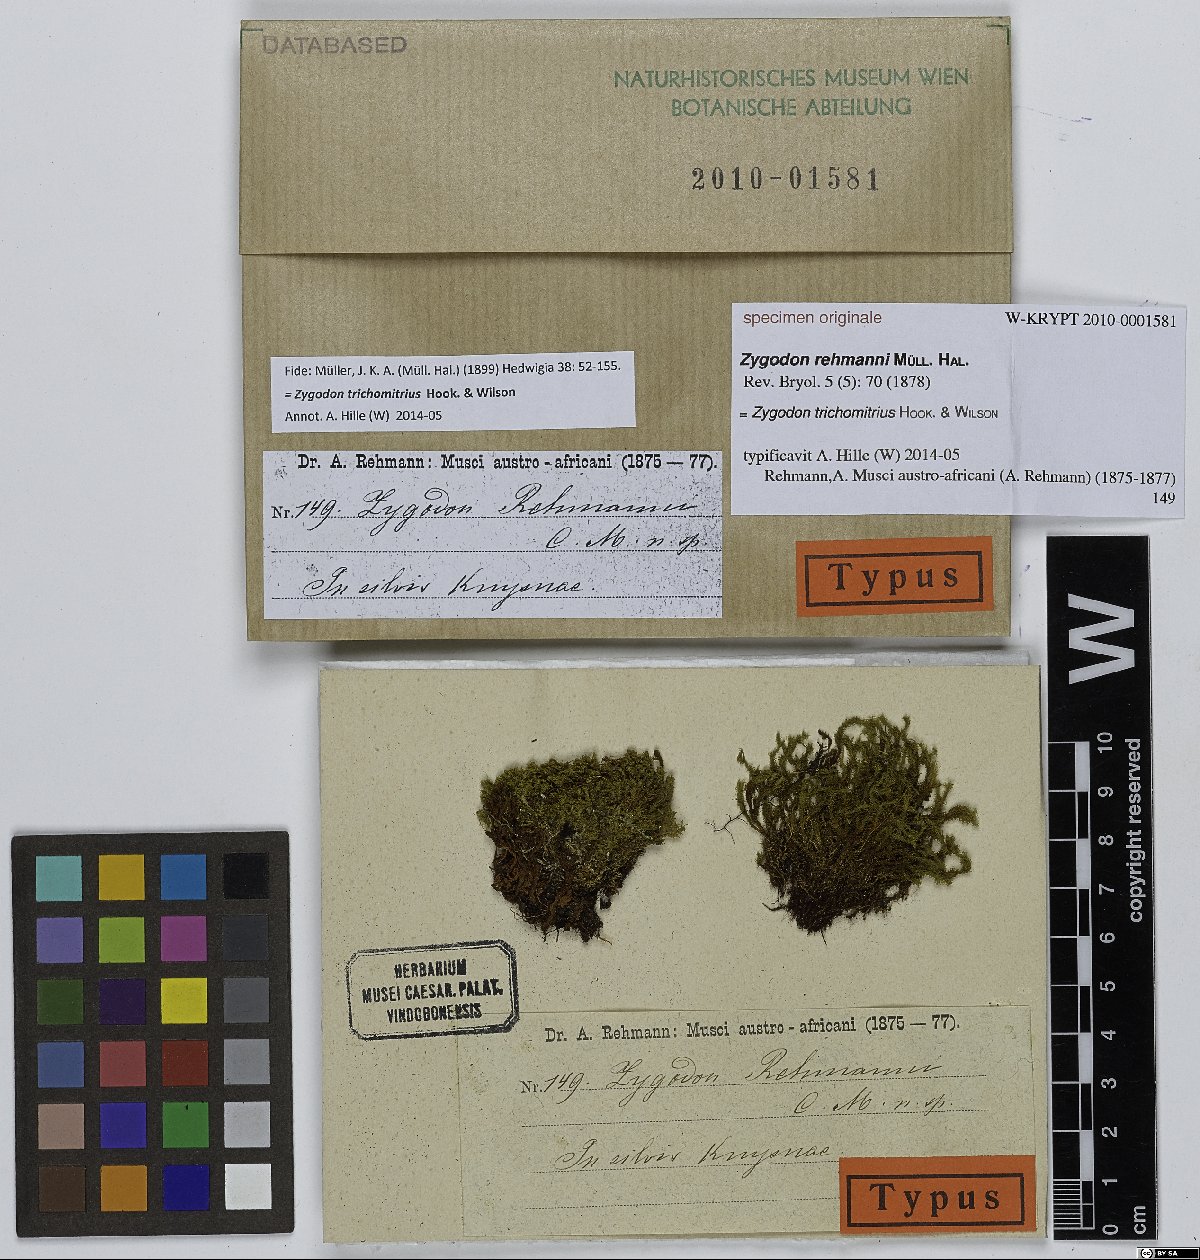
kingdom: Plantae
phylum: Bryophyta
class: Bryopsida
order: Orthotrichales
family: Orthotrichaceae
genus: Zygodon
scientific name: Zygodon
